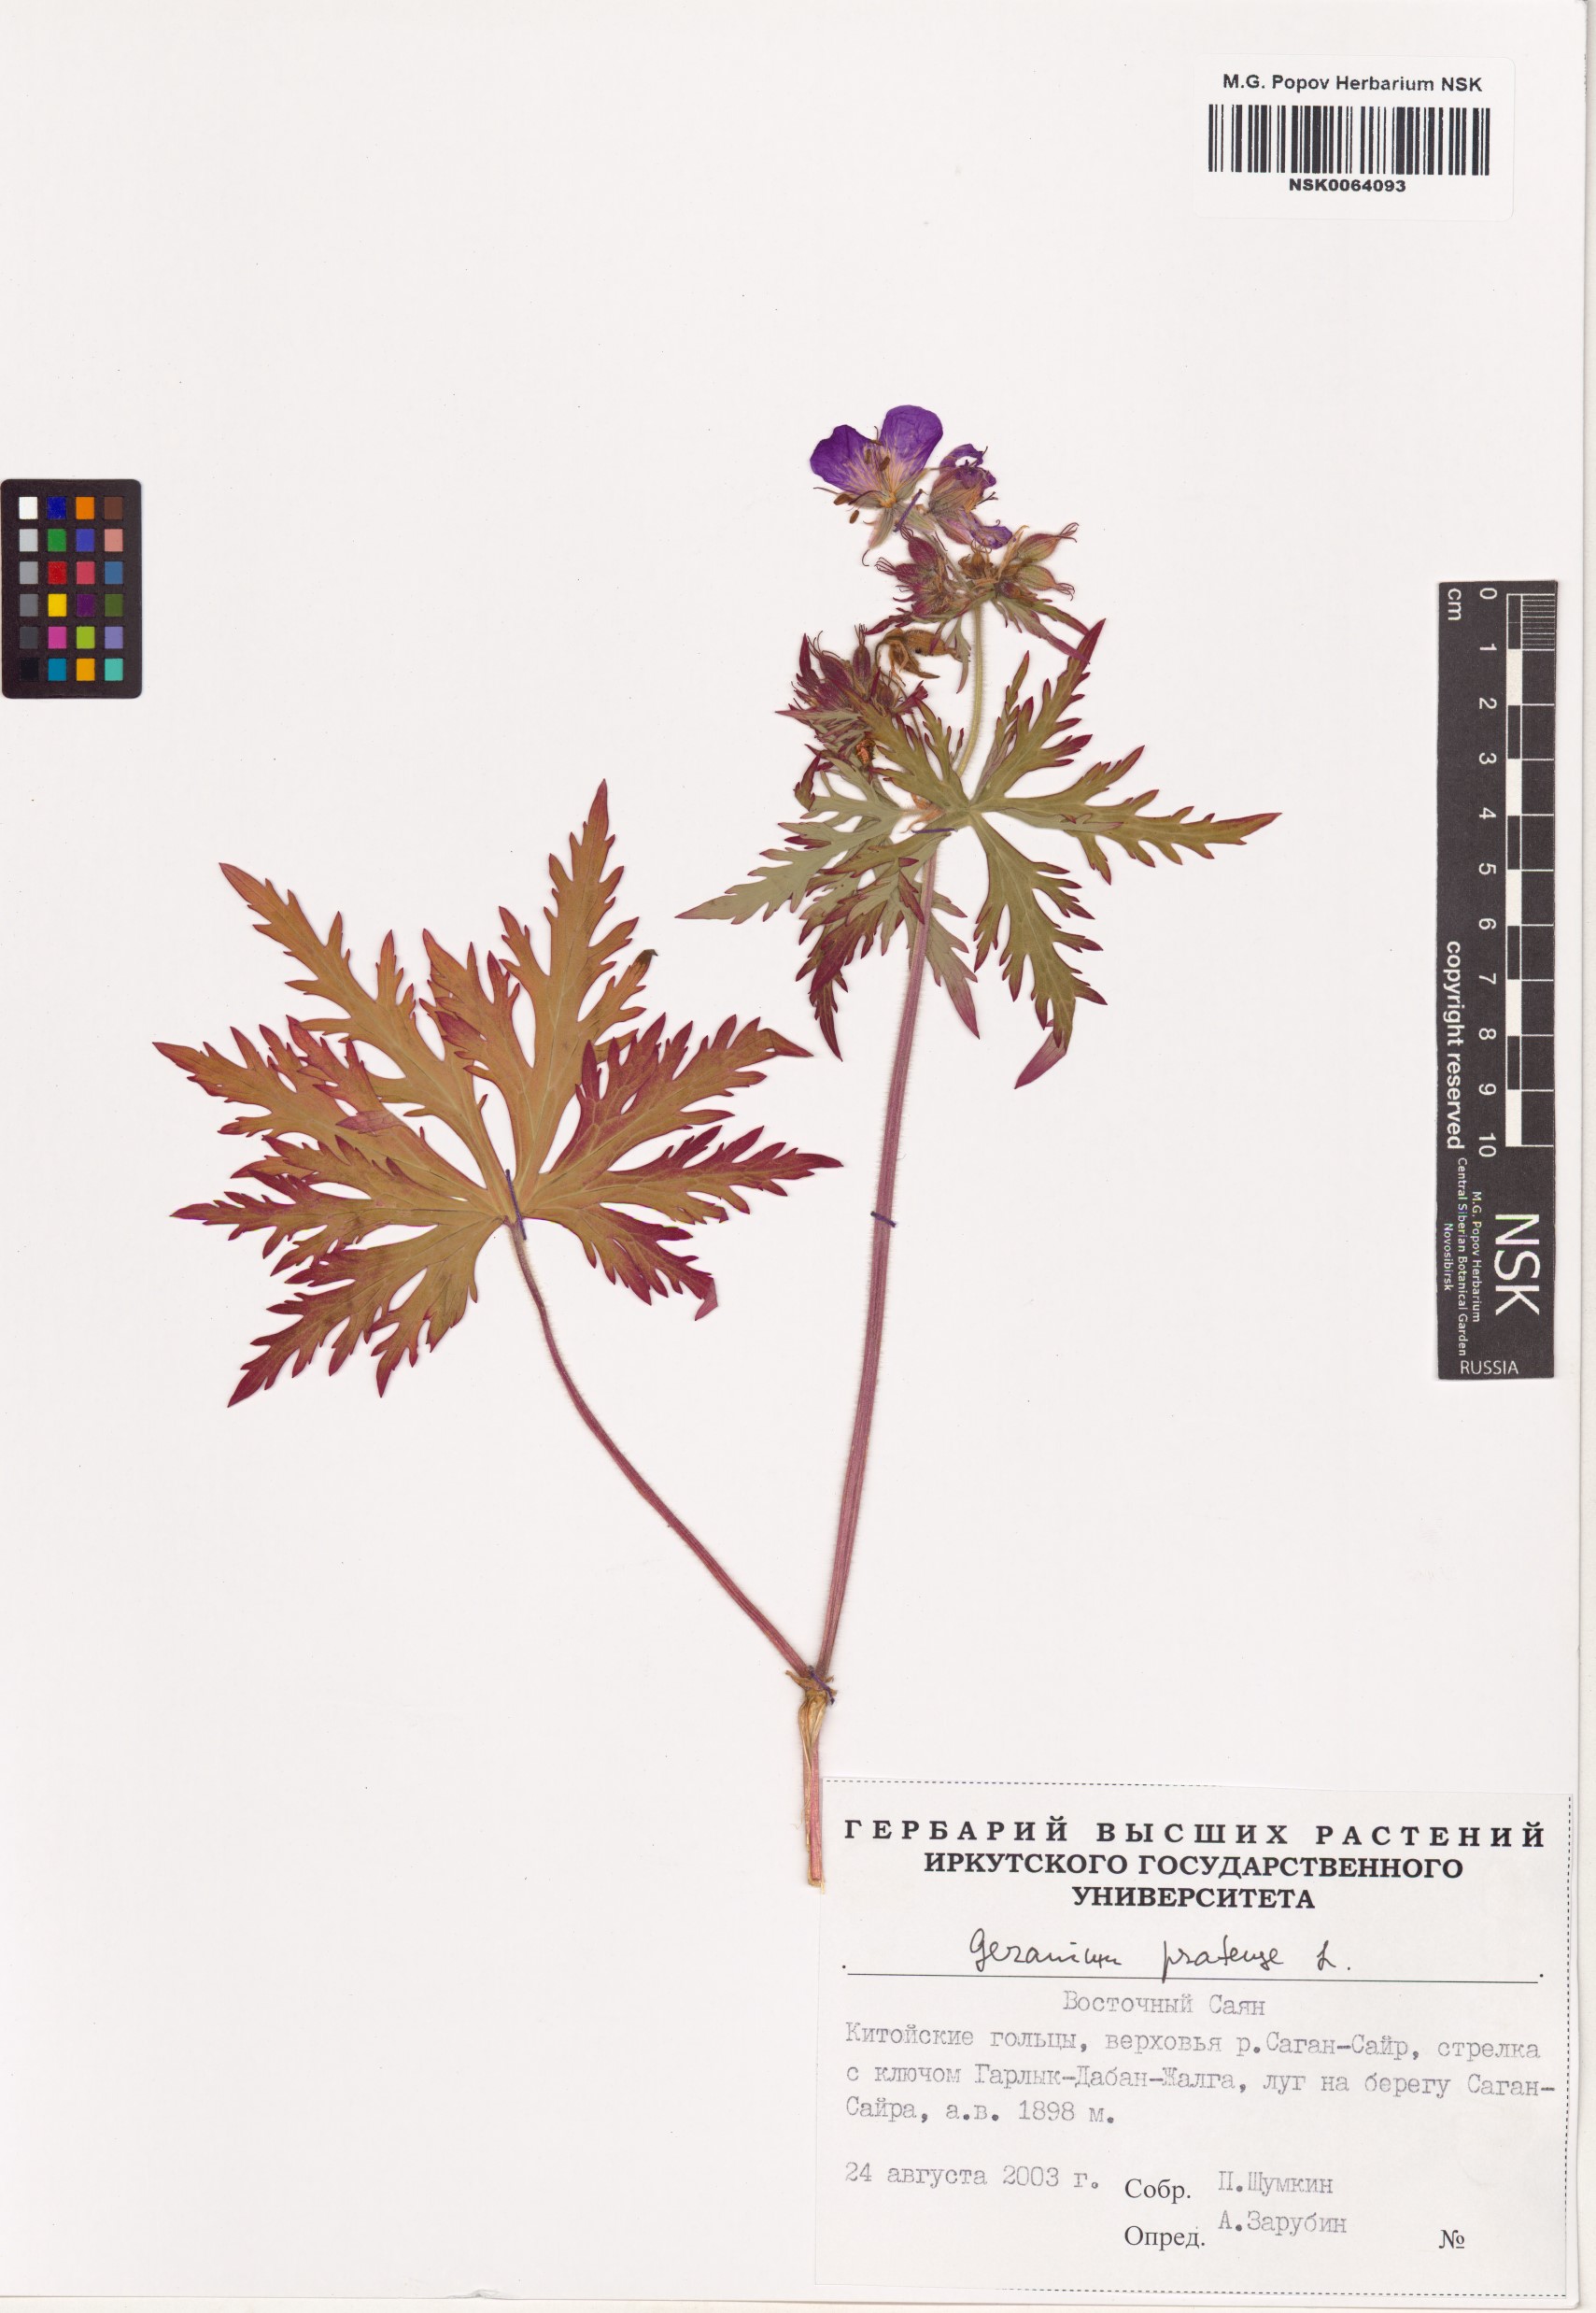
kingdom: Plantae
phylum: Tracheophyta
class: Magnoliopsida
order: Geraniales
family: Geraniaceae
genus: Geranium
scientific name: Geranium pratense
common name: Meadow crane's-bill
